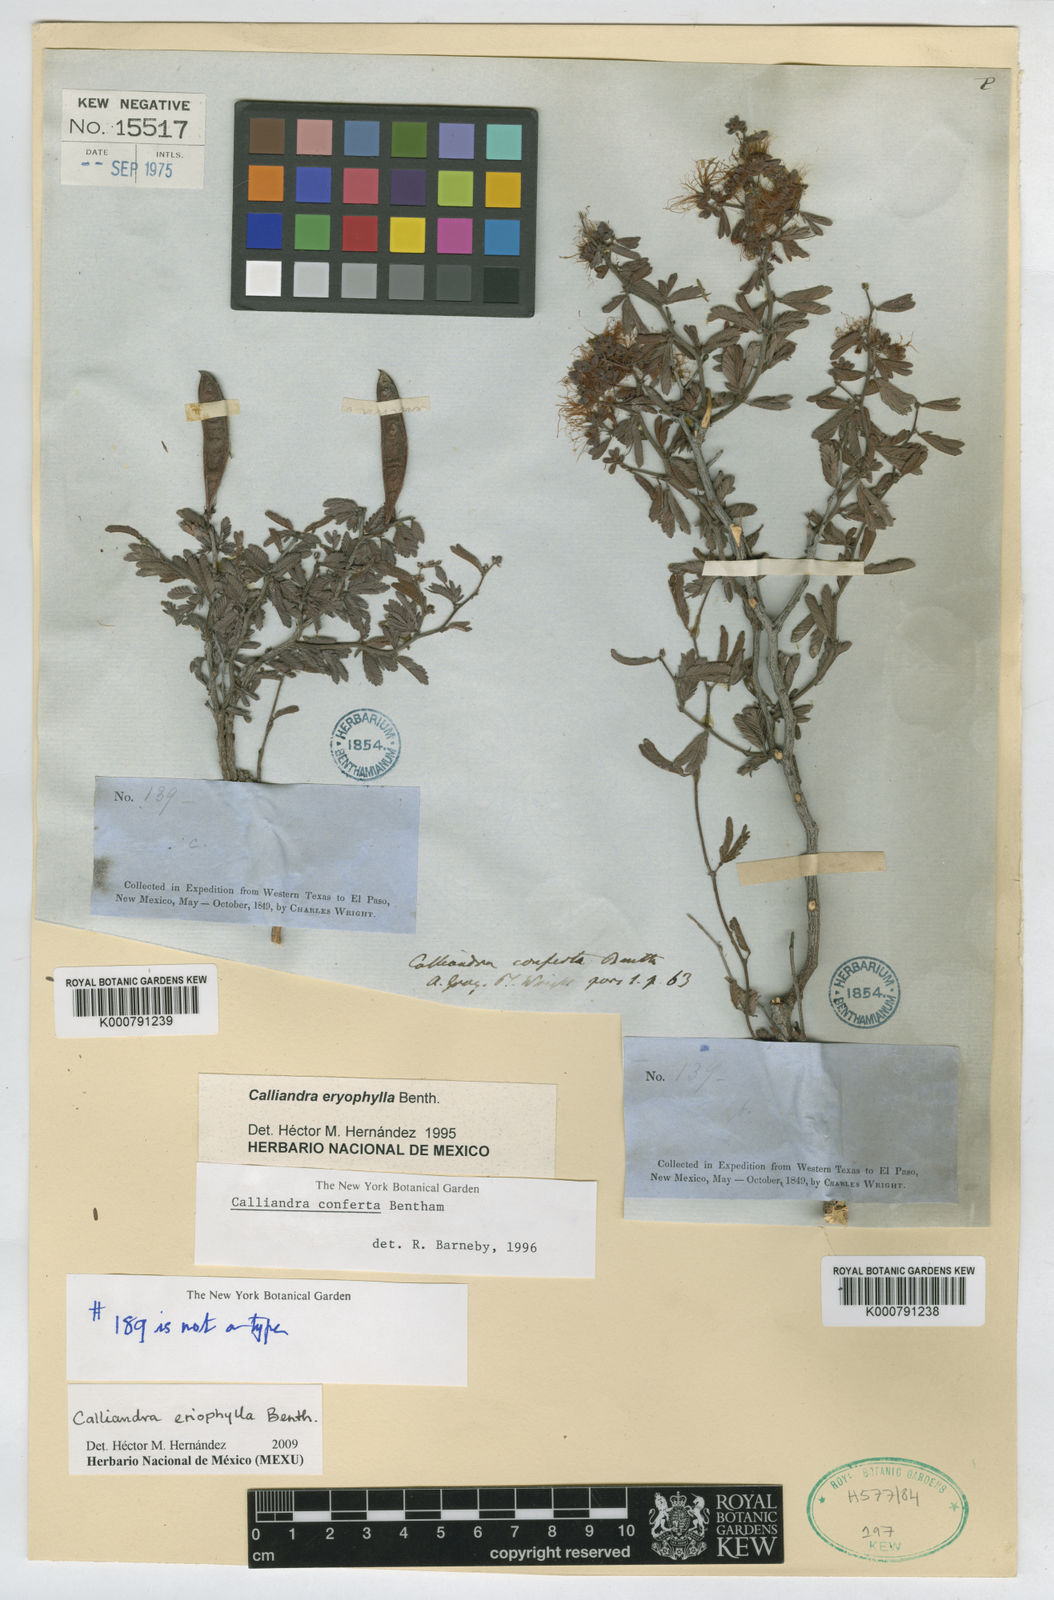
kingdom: Plantae
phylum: Tracheophyta
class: Magnoliopsida
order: Fabales
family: Fabaceae
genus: Calliandra
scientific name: Calliandra eriophylla
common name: Fairy-duster
